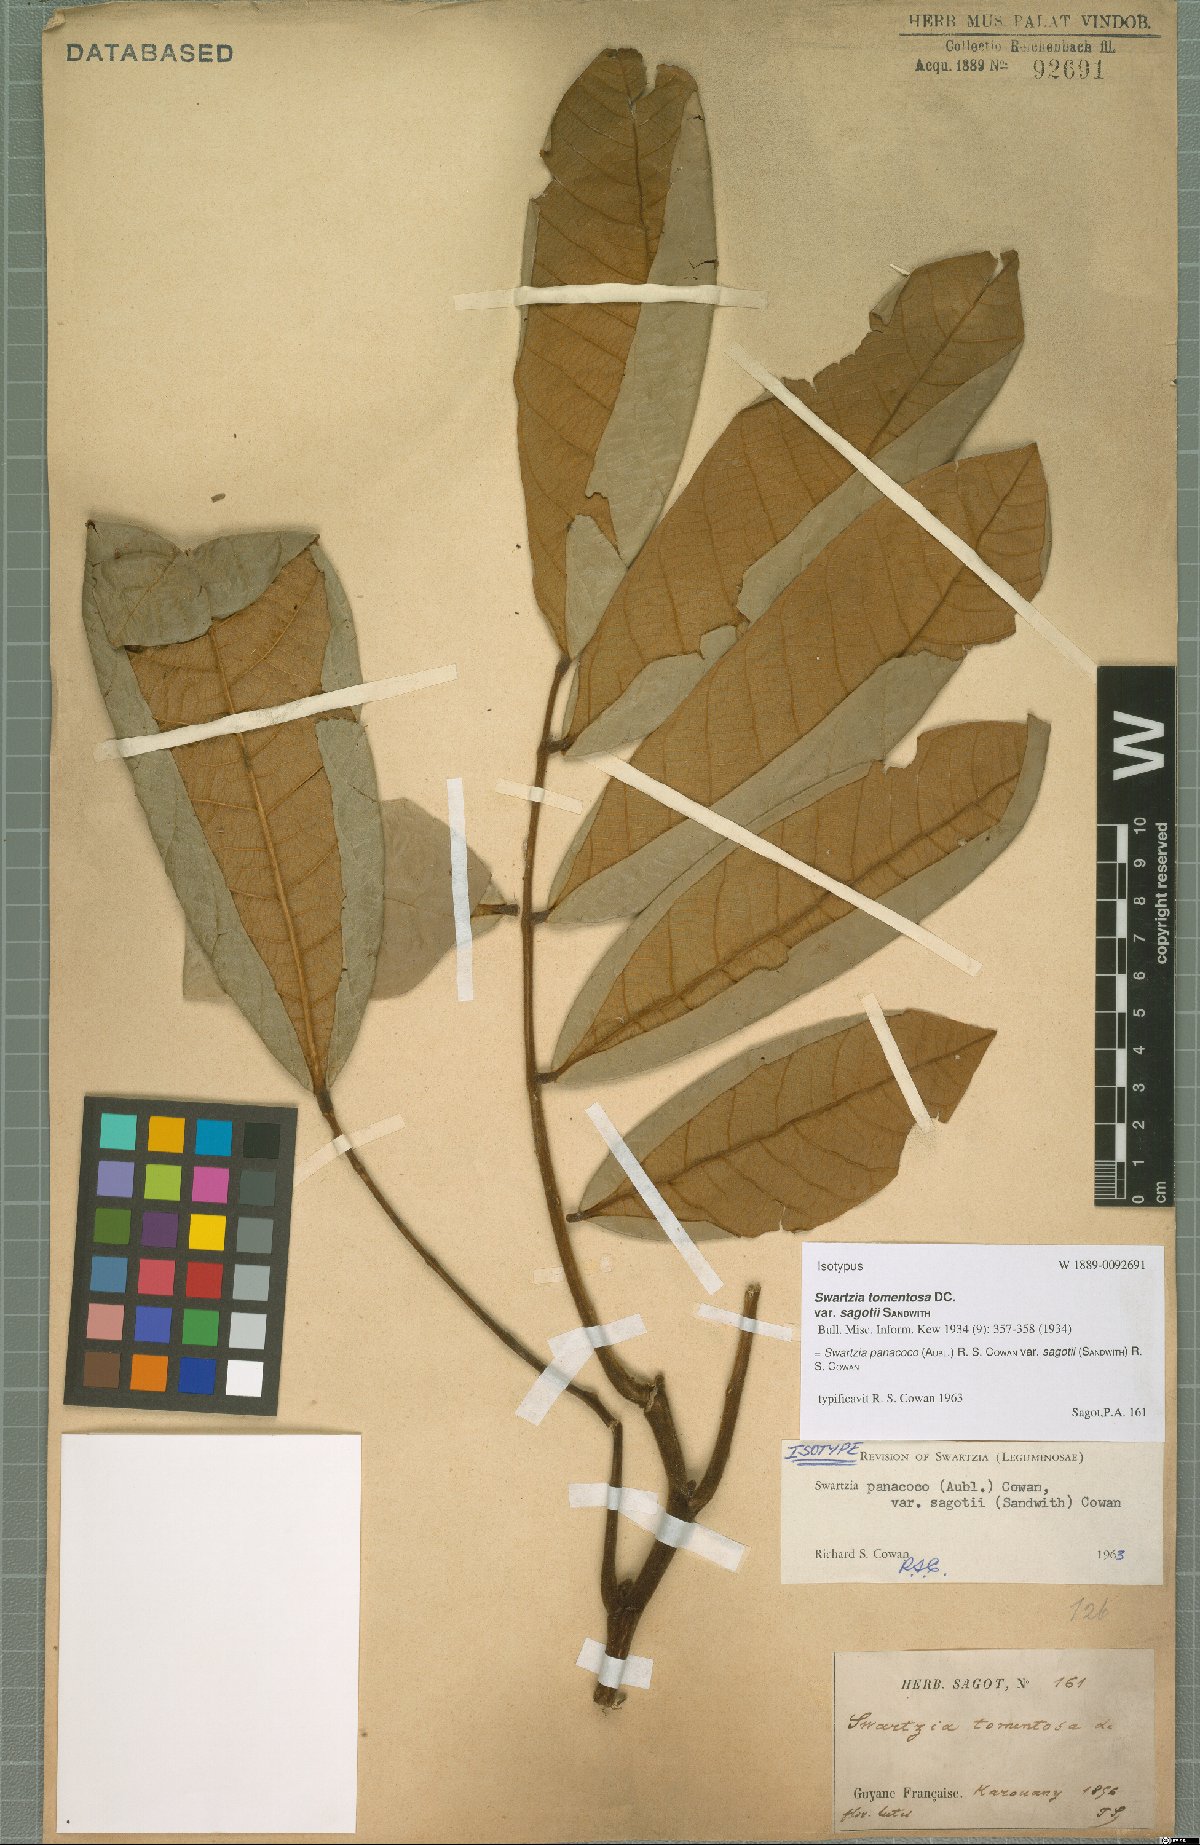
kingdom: Plantae
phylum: Tracheophyta
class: Magnoliopsida
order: Fabales
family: Fabaceae
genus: Swartzia
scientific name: Swartzia panacoco
